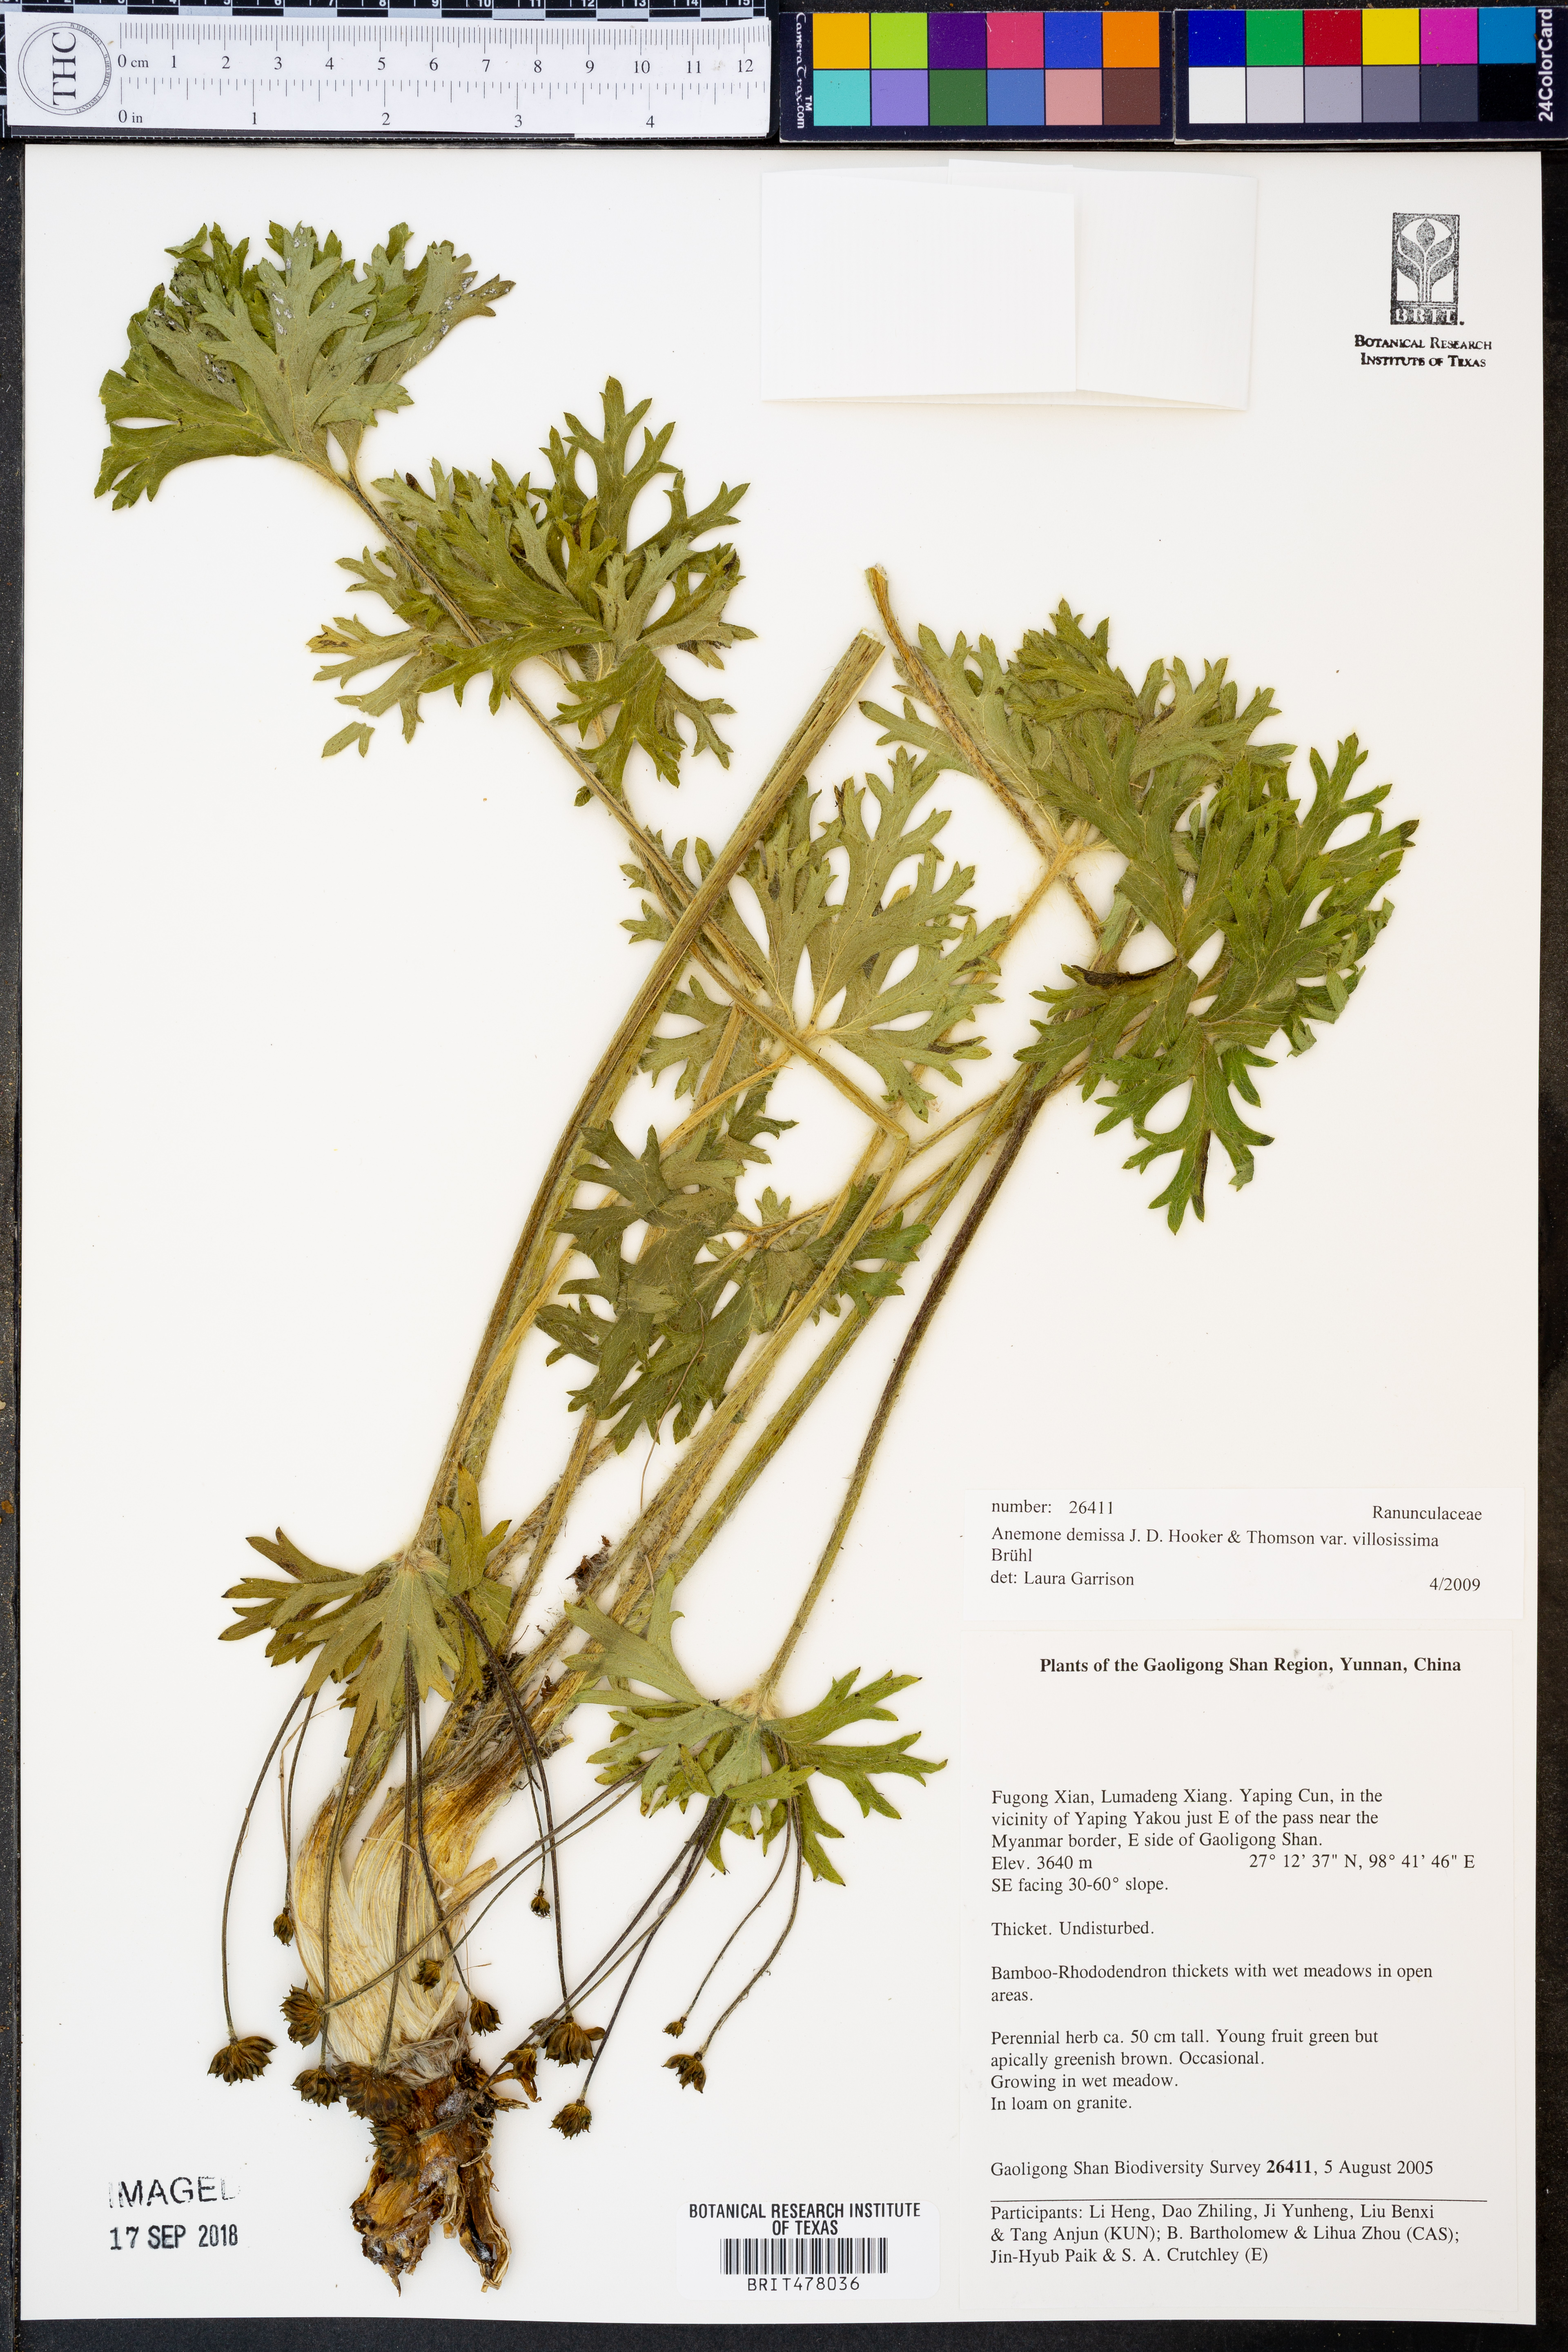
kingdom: Plantae
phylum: Tracheophyta
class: Magnoliopsida
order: Ranunculales
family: Ranunculaceae
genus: Anemonastrum
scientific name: Anemonastrum demissum
